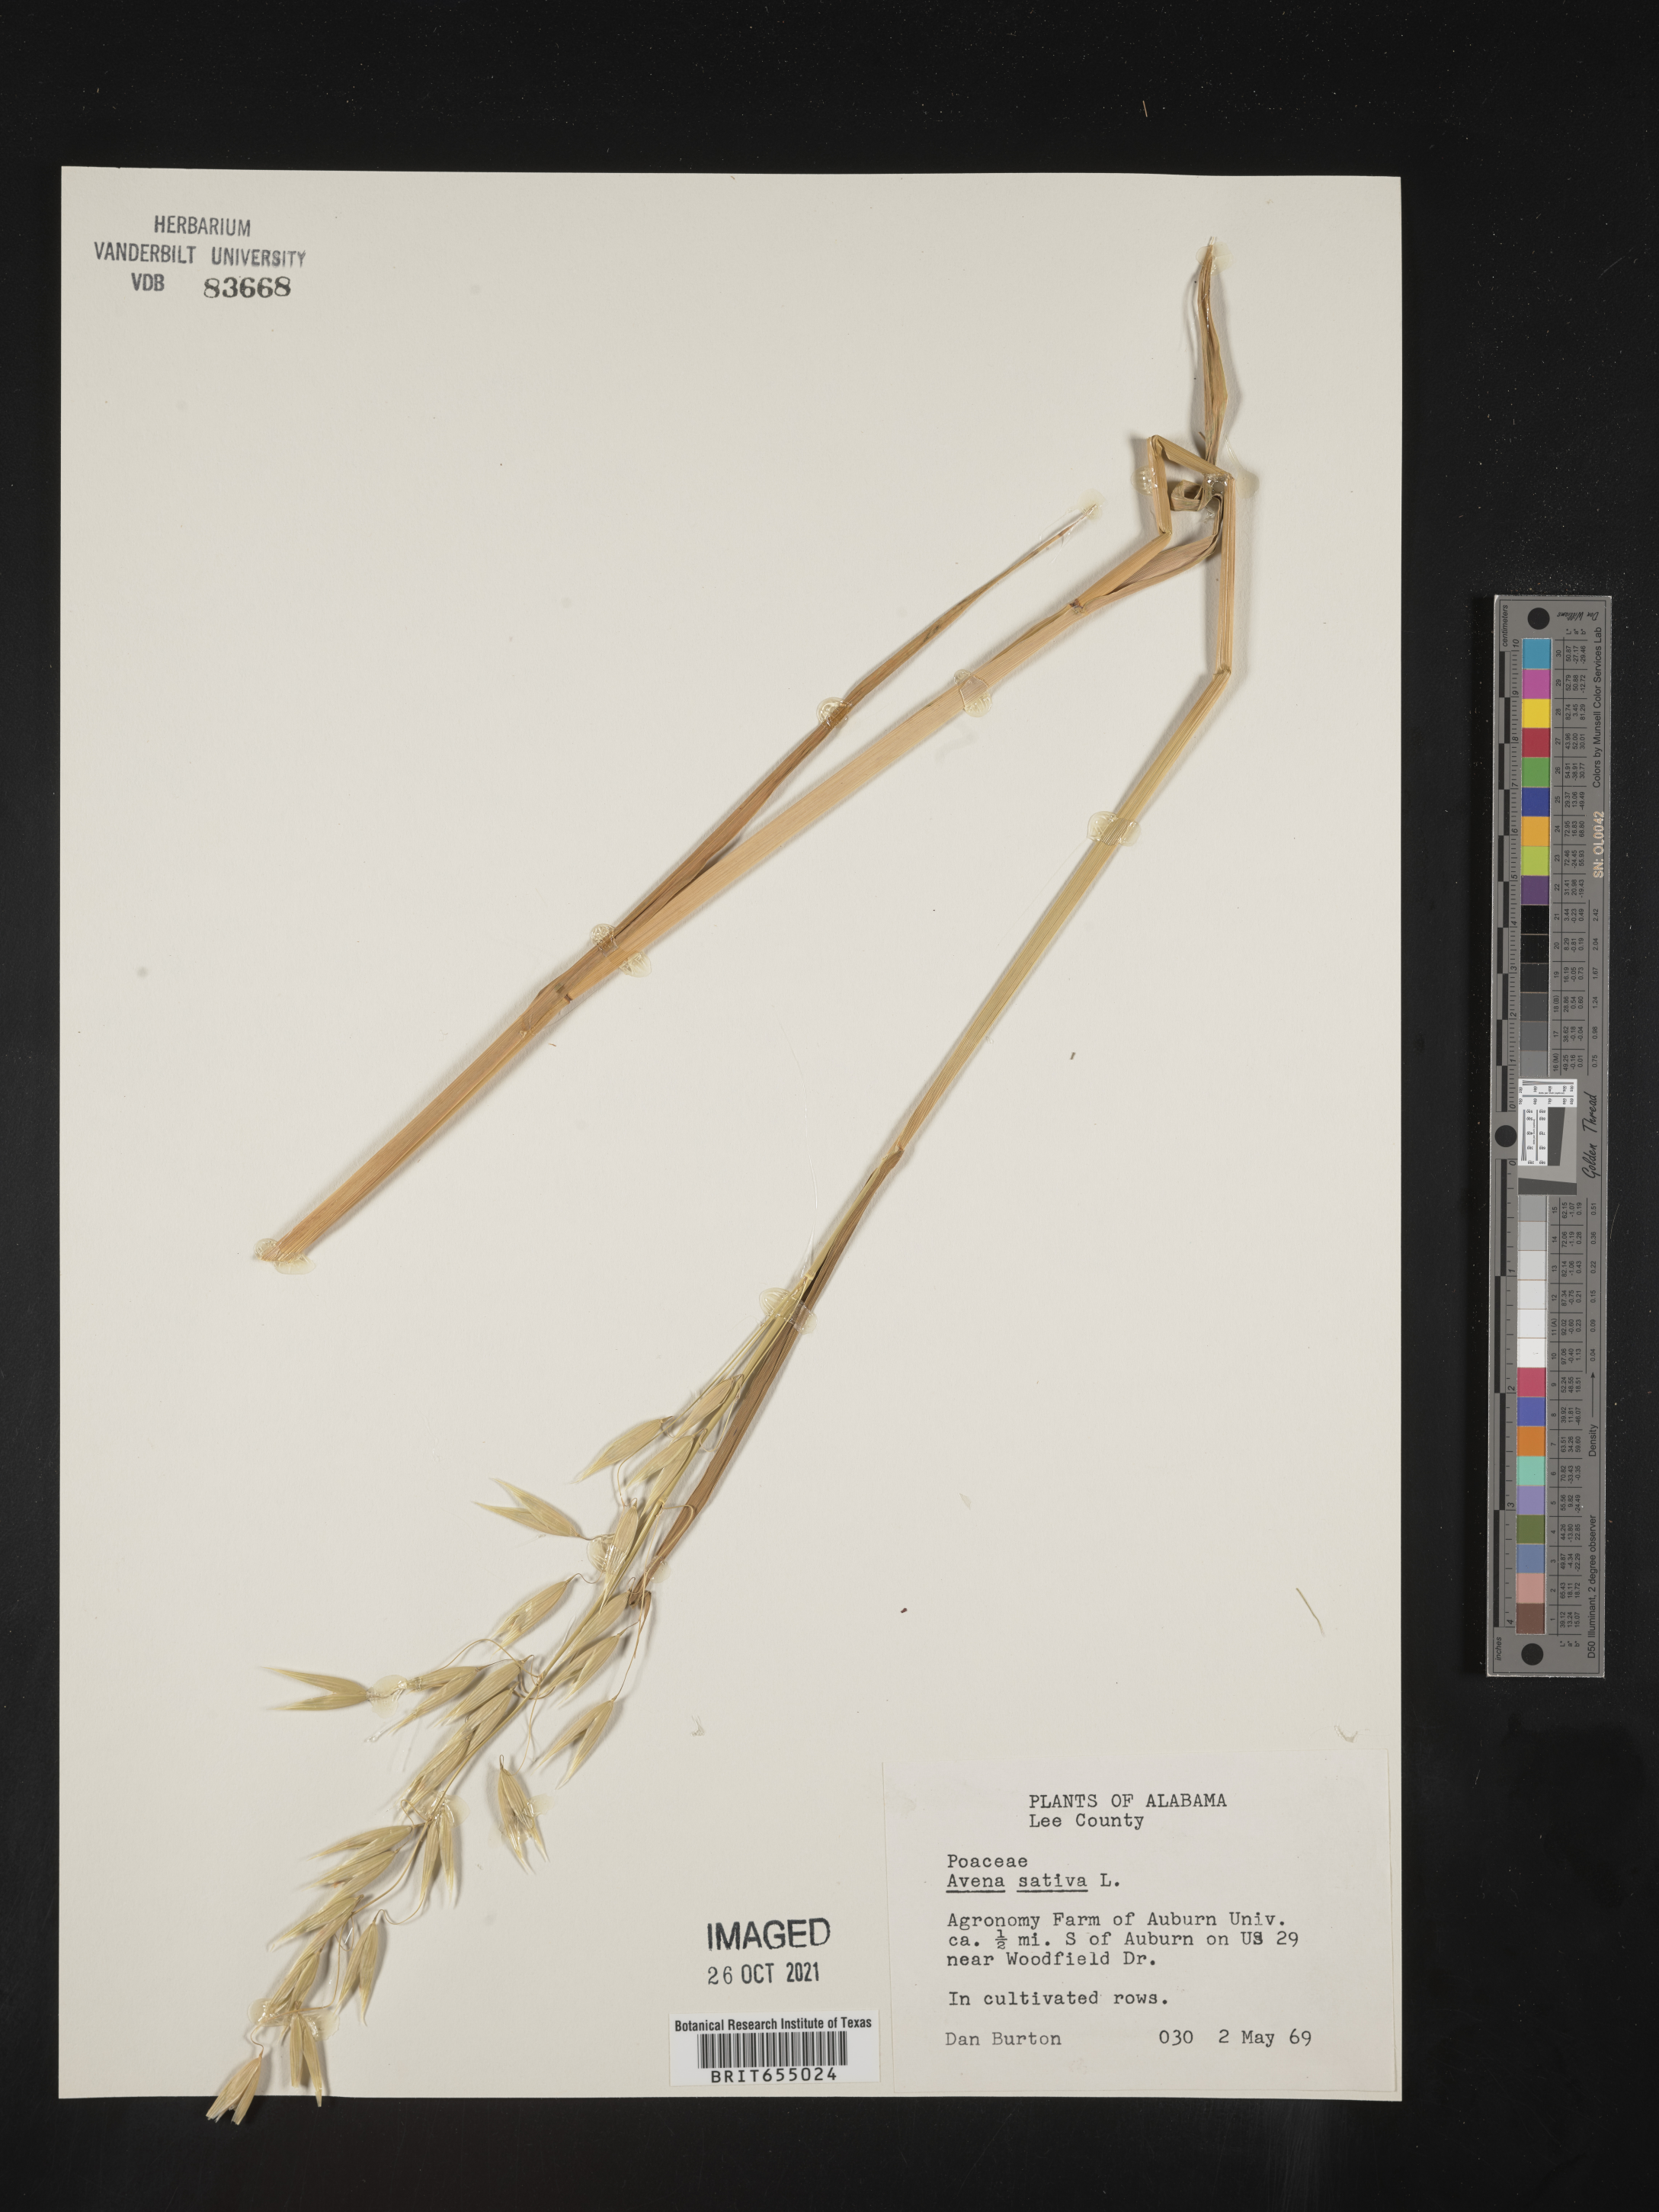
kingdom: Plantae
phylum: Tracheophyta
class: Liliopsida
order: Poales
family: Poaceae
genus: Avena
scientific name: Avena
